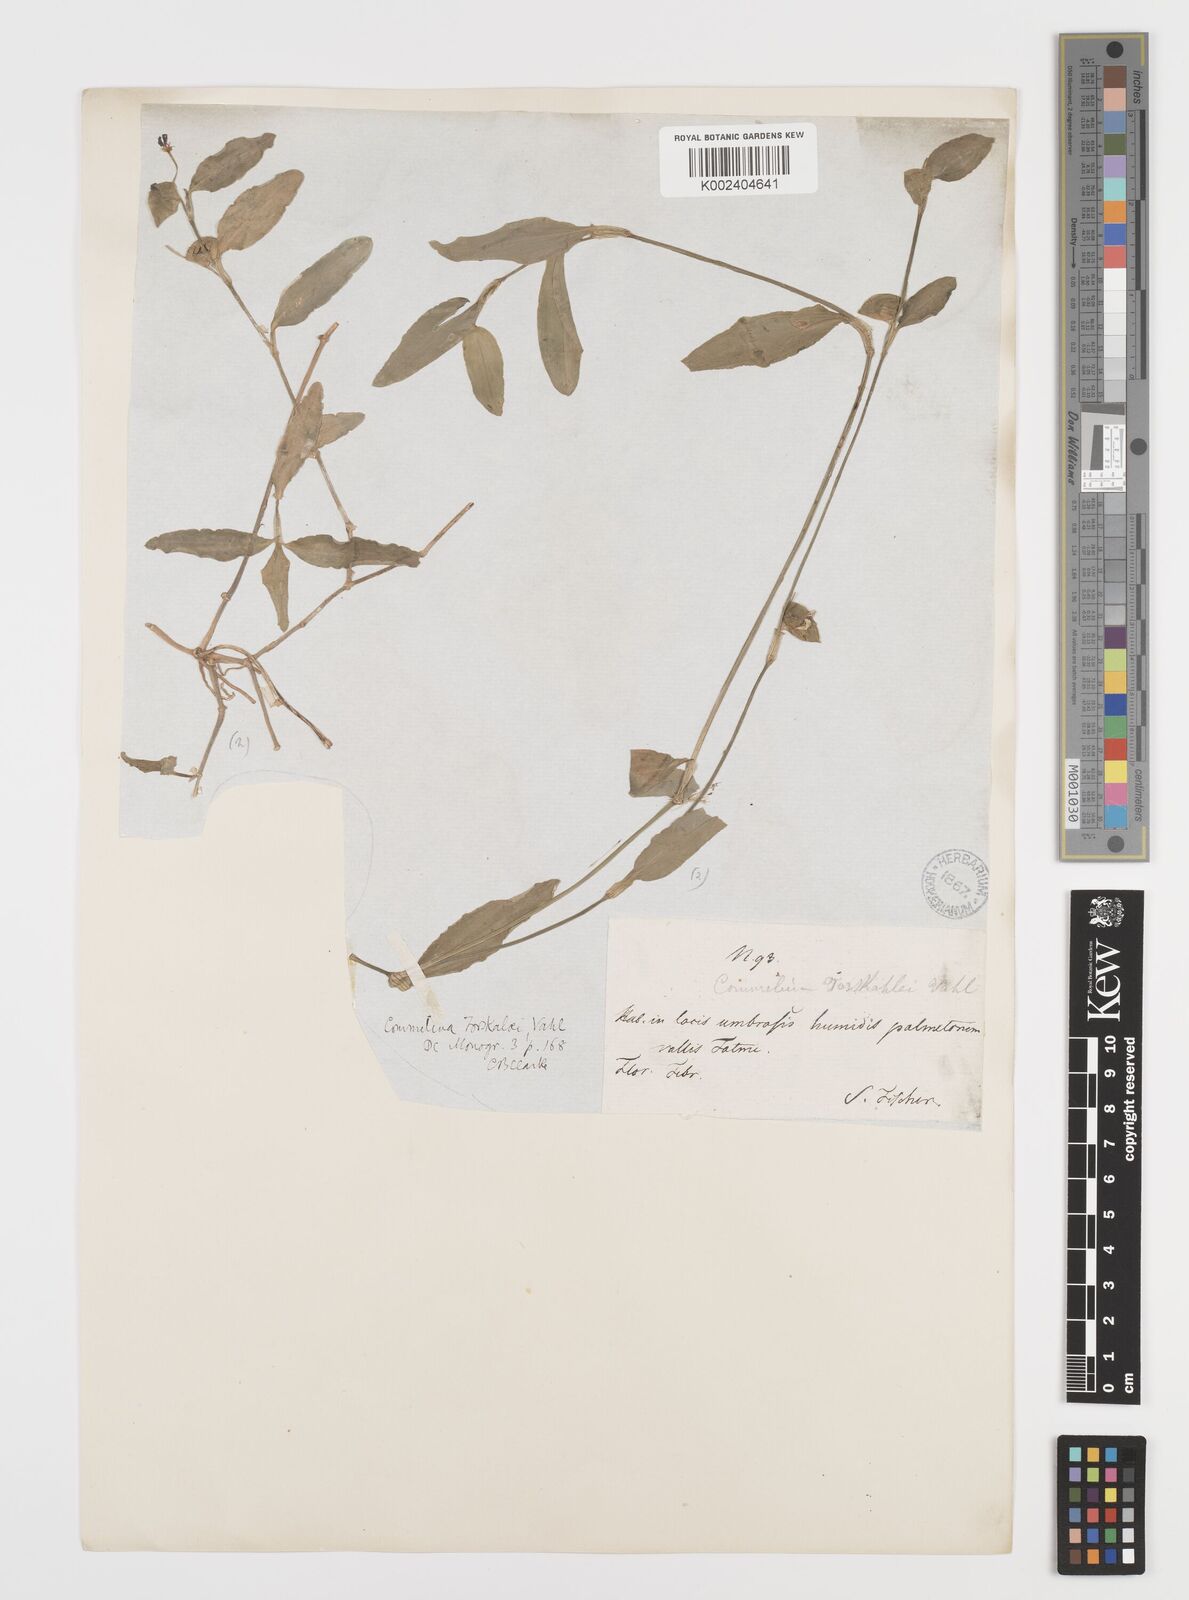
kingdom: Plantae
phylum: Tracheophyta
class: Liliopsida
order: Commelinales
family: Commelinaceae
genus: Commelina
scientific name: Commelina forskaolii
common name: Rat's ear
